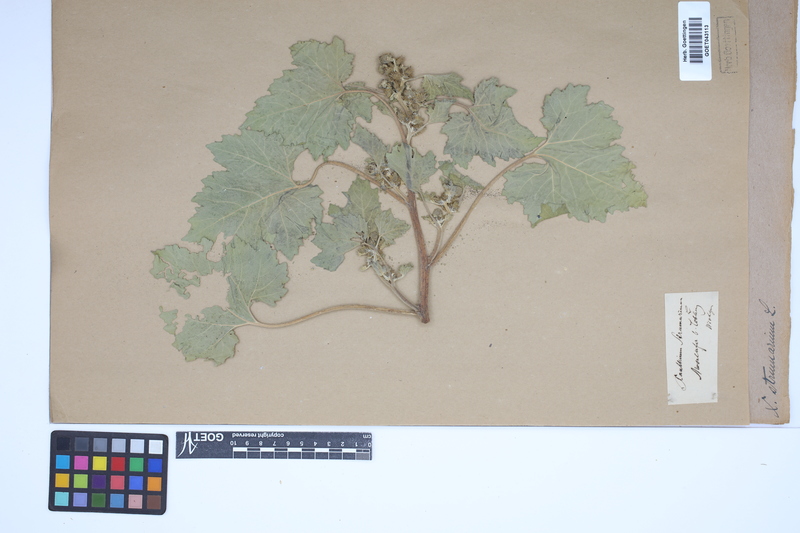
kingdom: Plantae
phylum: Tracheophyta
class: Magnoliopsida
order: Asterales
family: Asteraceae
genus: Xanthium
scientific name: Xanthium strumarium
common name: Rough cocklebur
